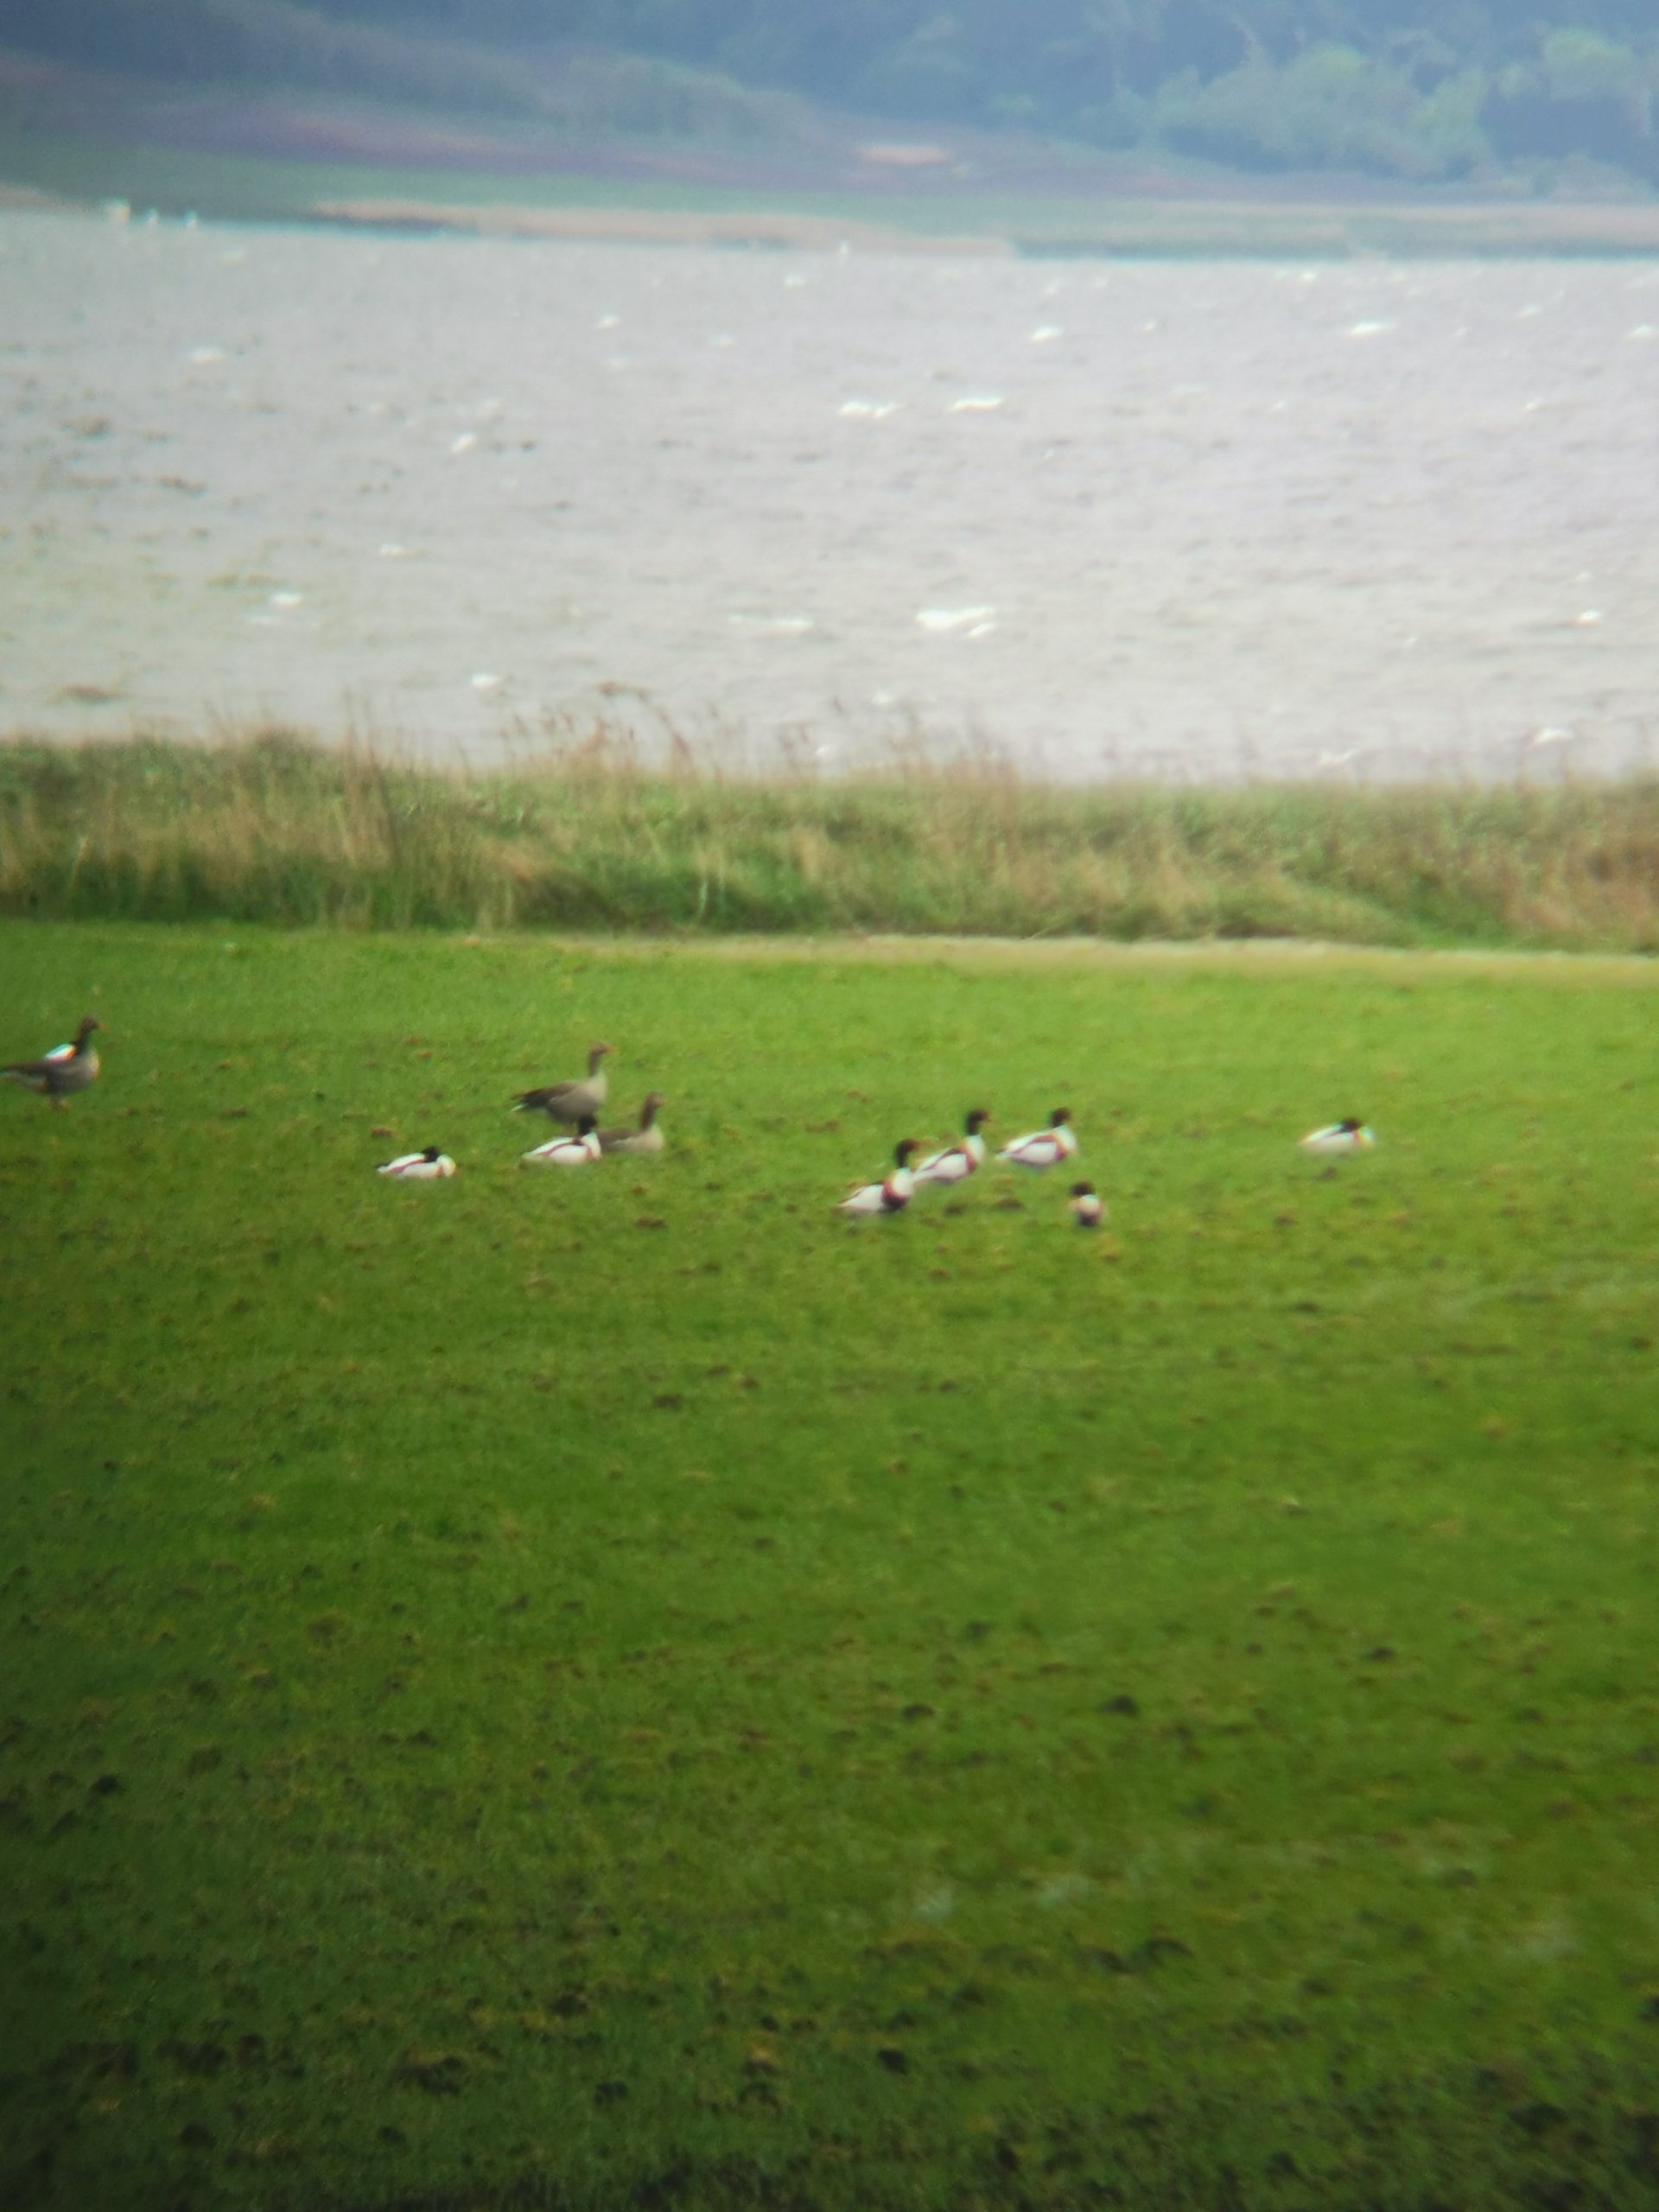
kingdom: Animalia
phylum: Chordata
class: Aves
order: Anseriformes
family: Anatidae
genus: Tadorna
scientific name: Tadorna tadorna
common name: Gravand
